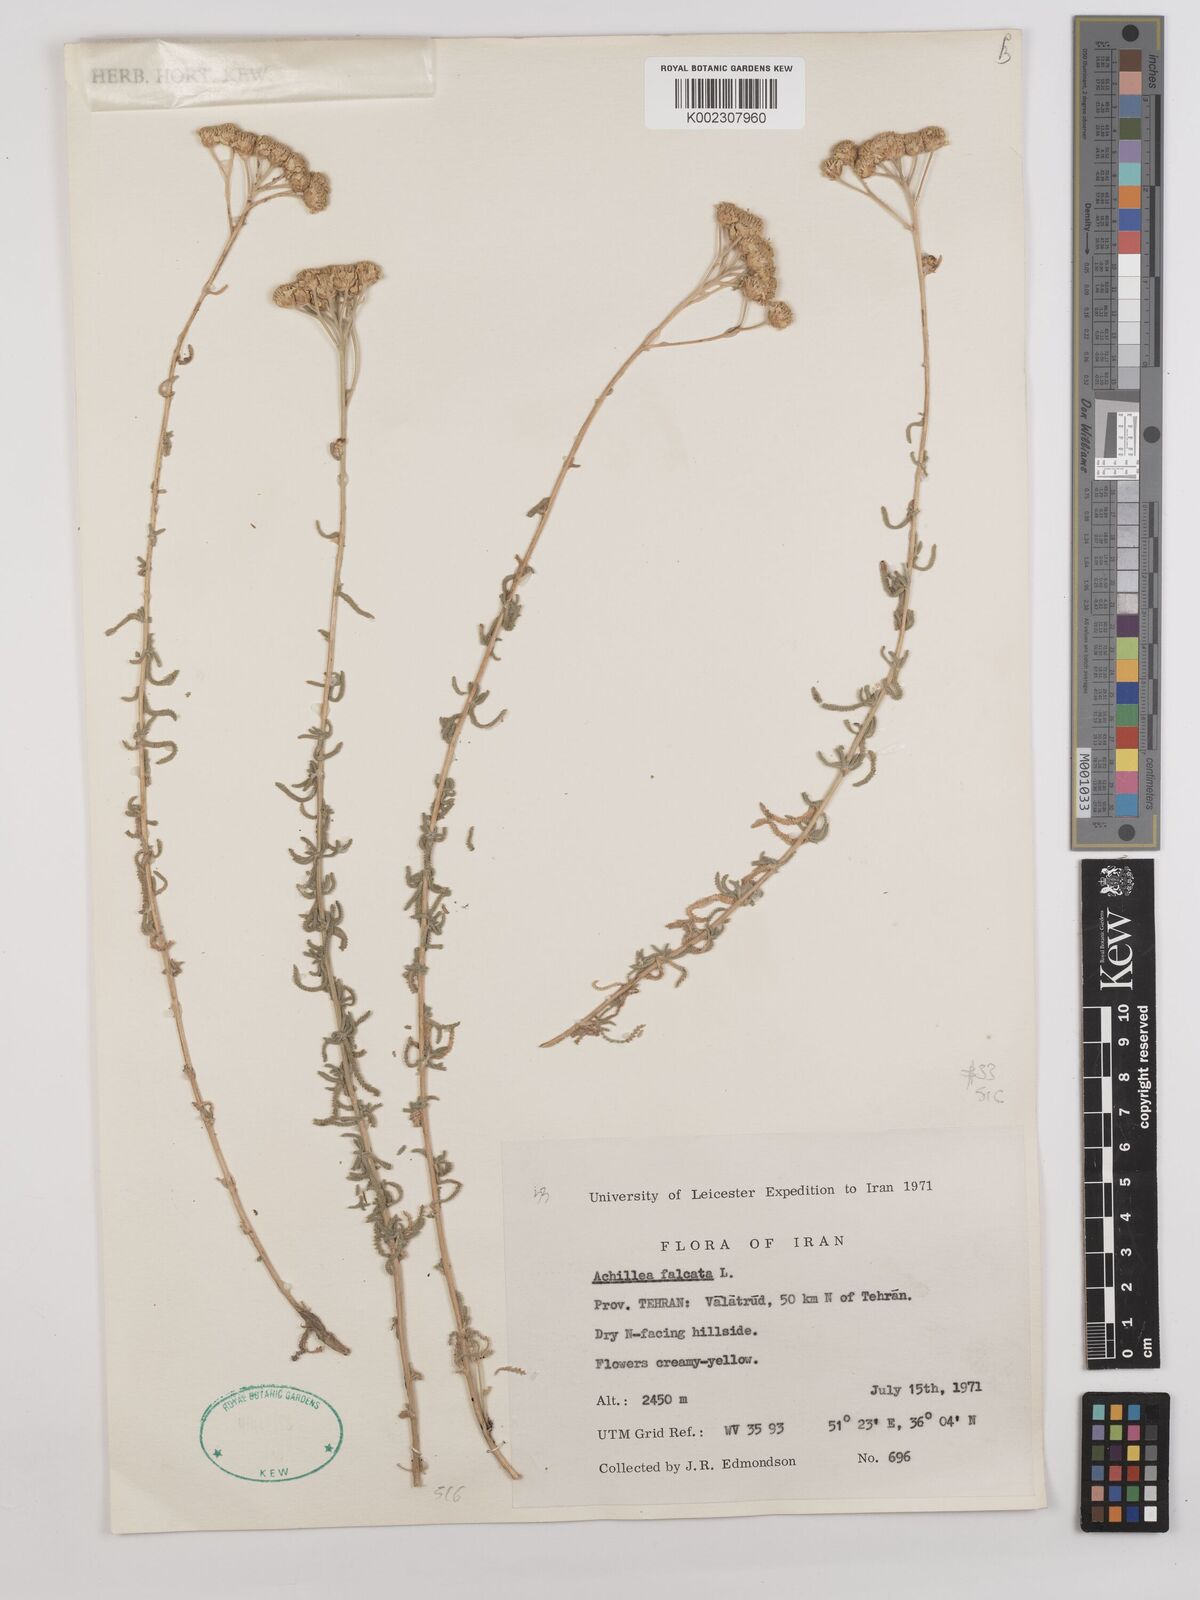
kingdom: Plantae
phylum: Tracheophyta
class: Magnoliopsida
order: Asterales
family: Asteraceae
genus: Achillea
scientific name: Achillea falcata
